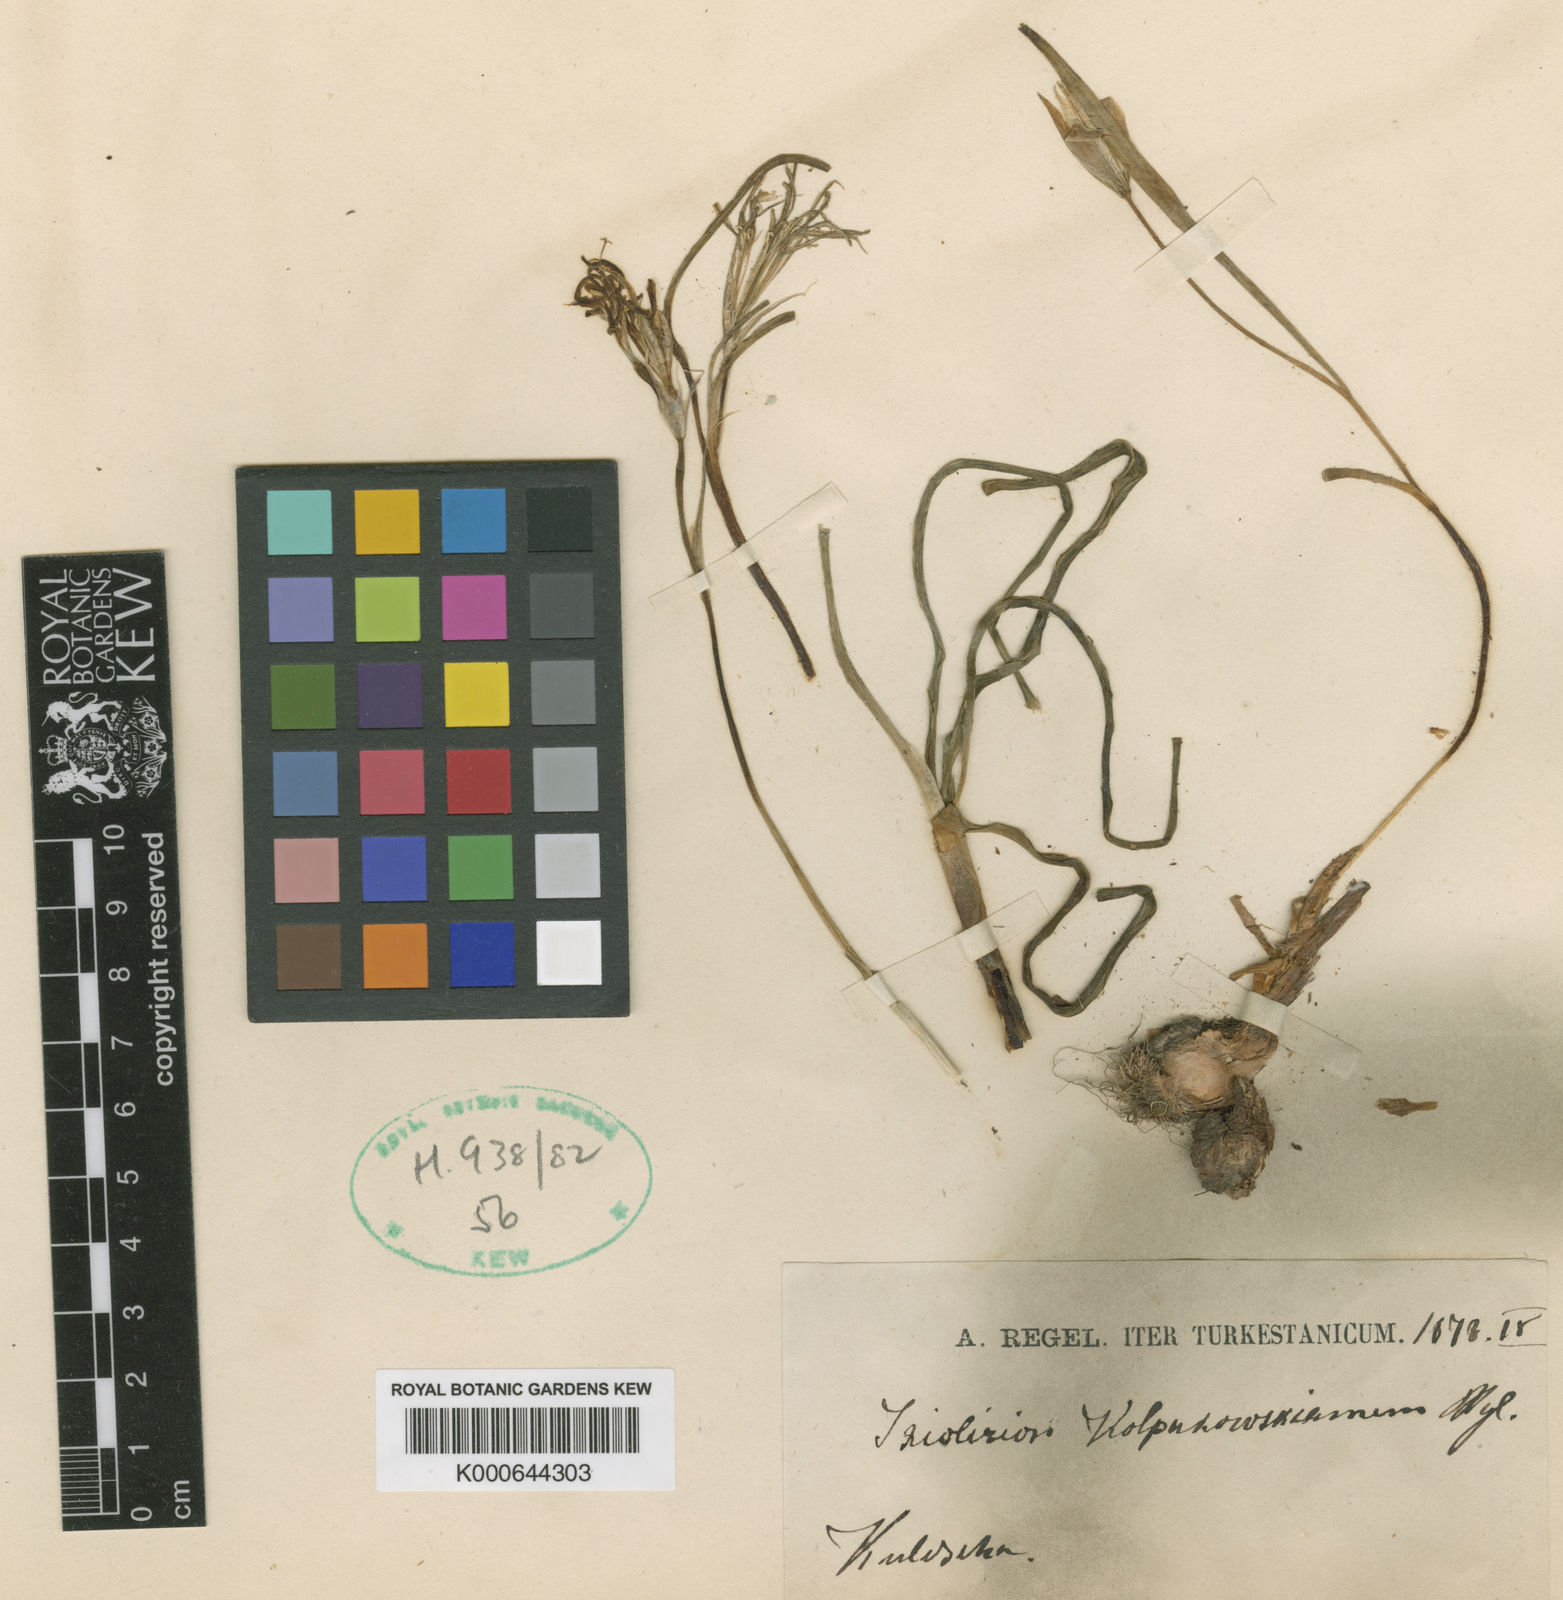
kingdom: Plantae
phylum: Tracheophyta
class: Liliopsida
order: Asparagales
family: Ixioliriaceae
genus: Ixiolirion
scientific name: Ixiolirion tataricum
